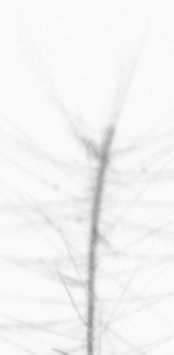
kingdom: Chromista
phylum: Ochrophyta
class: Bacillariophyceae
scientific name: Bacillariophyceae
